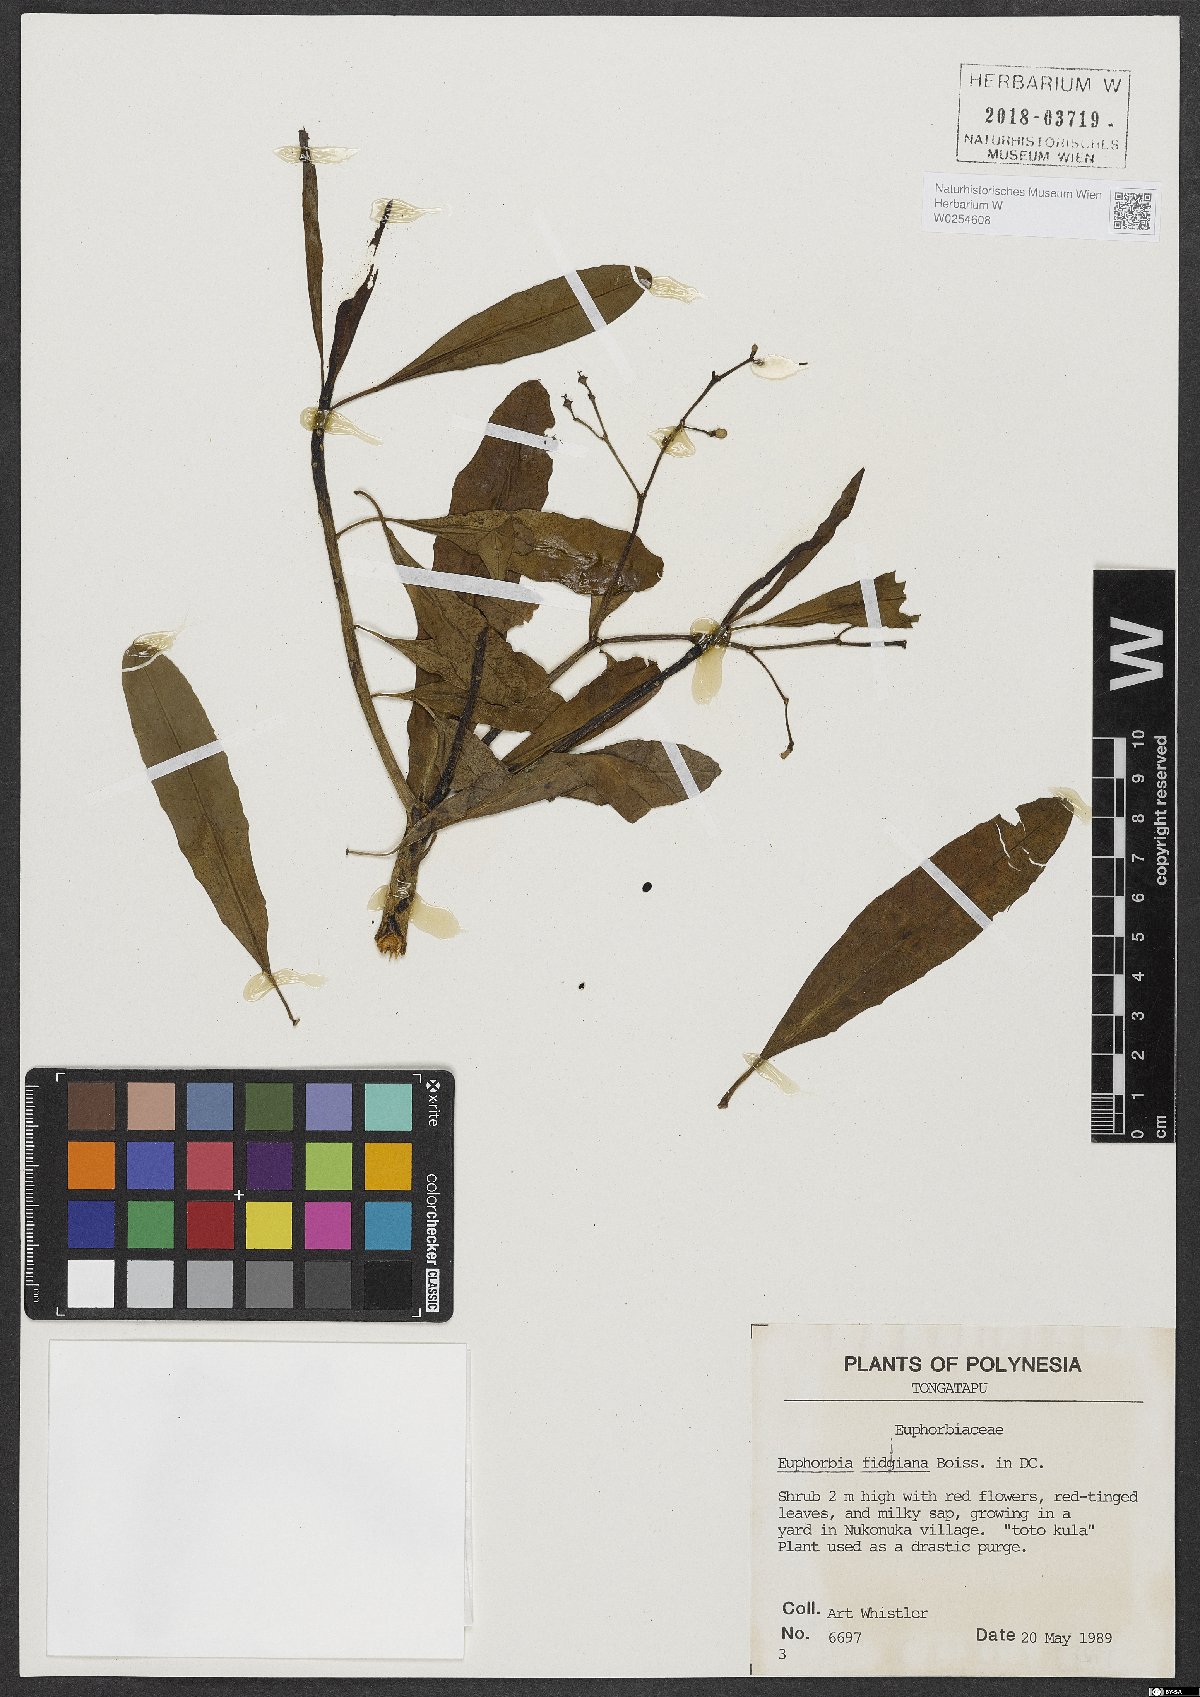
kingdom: Plantae
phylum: Tracheophyta
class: Magnoliopsida
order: Malpighiales
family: Euphorbiaceae
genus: Euphorbia
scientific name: Euphorbia plumerioides
